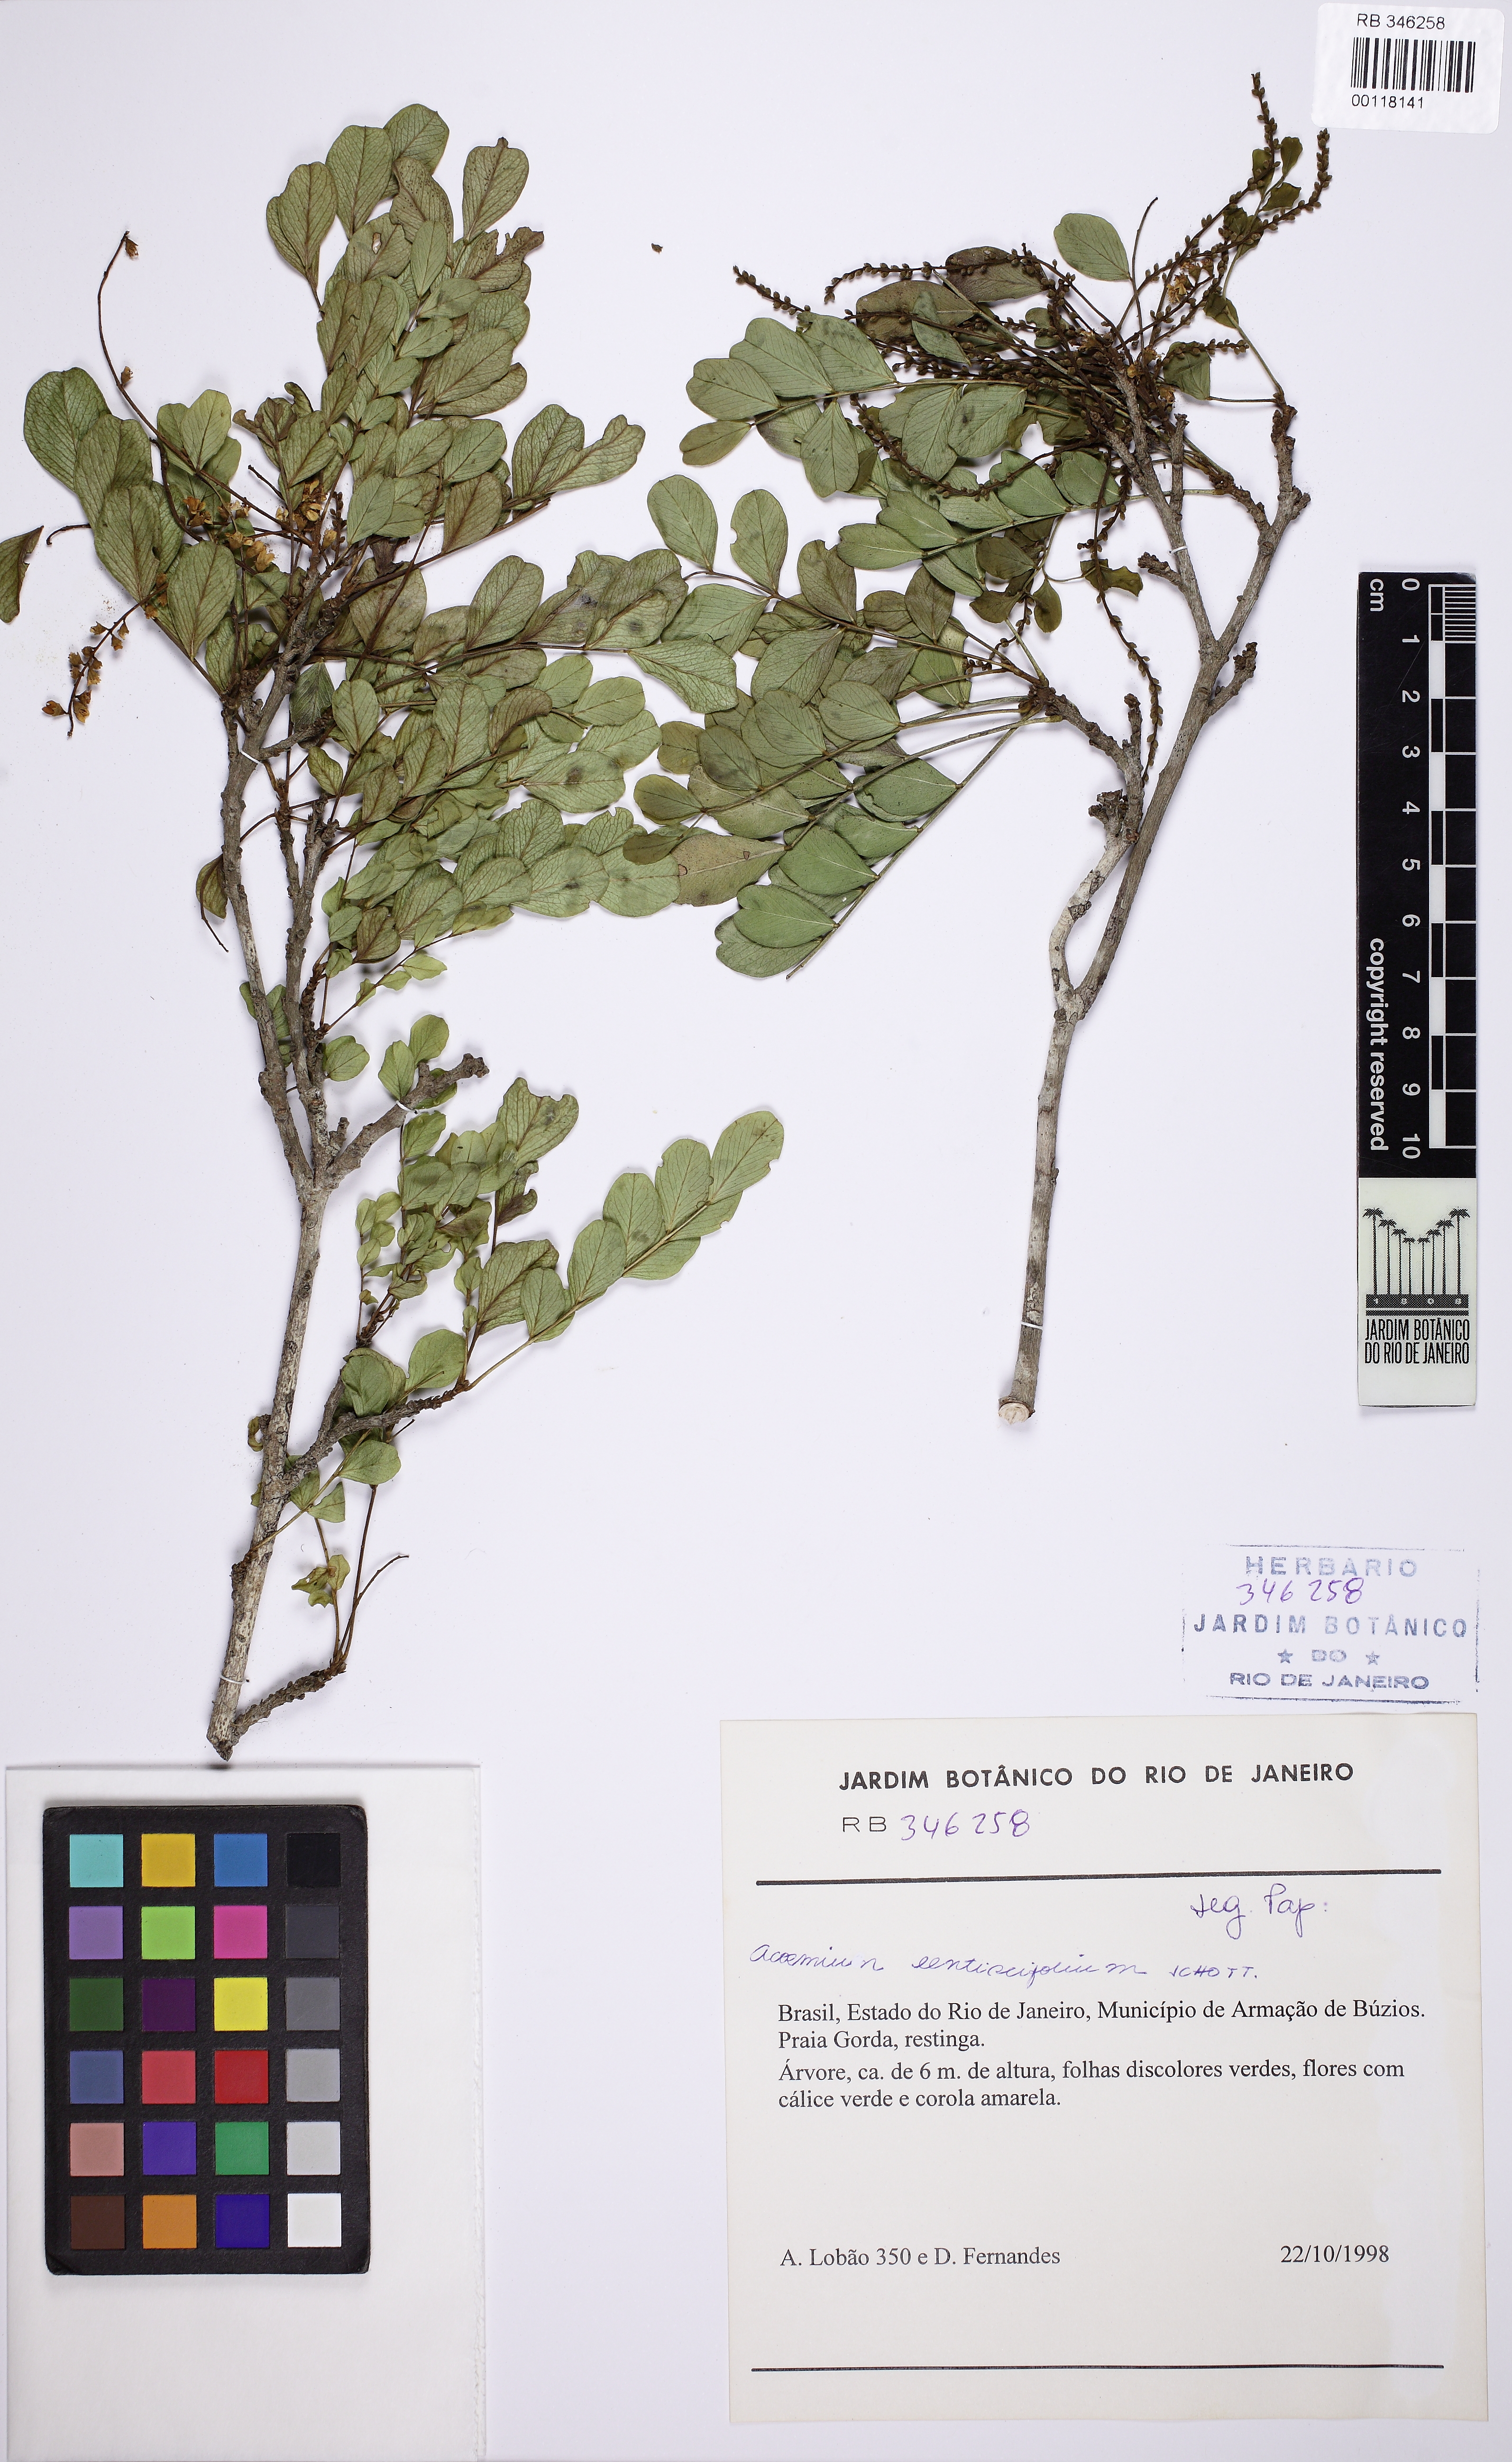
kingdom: Plantae
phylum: Tracheophyta
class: Magnoliopsida
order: Fabales
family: Fabaceae
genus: Acosmium
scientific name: Acosmium lentiscifolium
